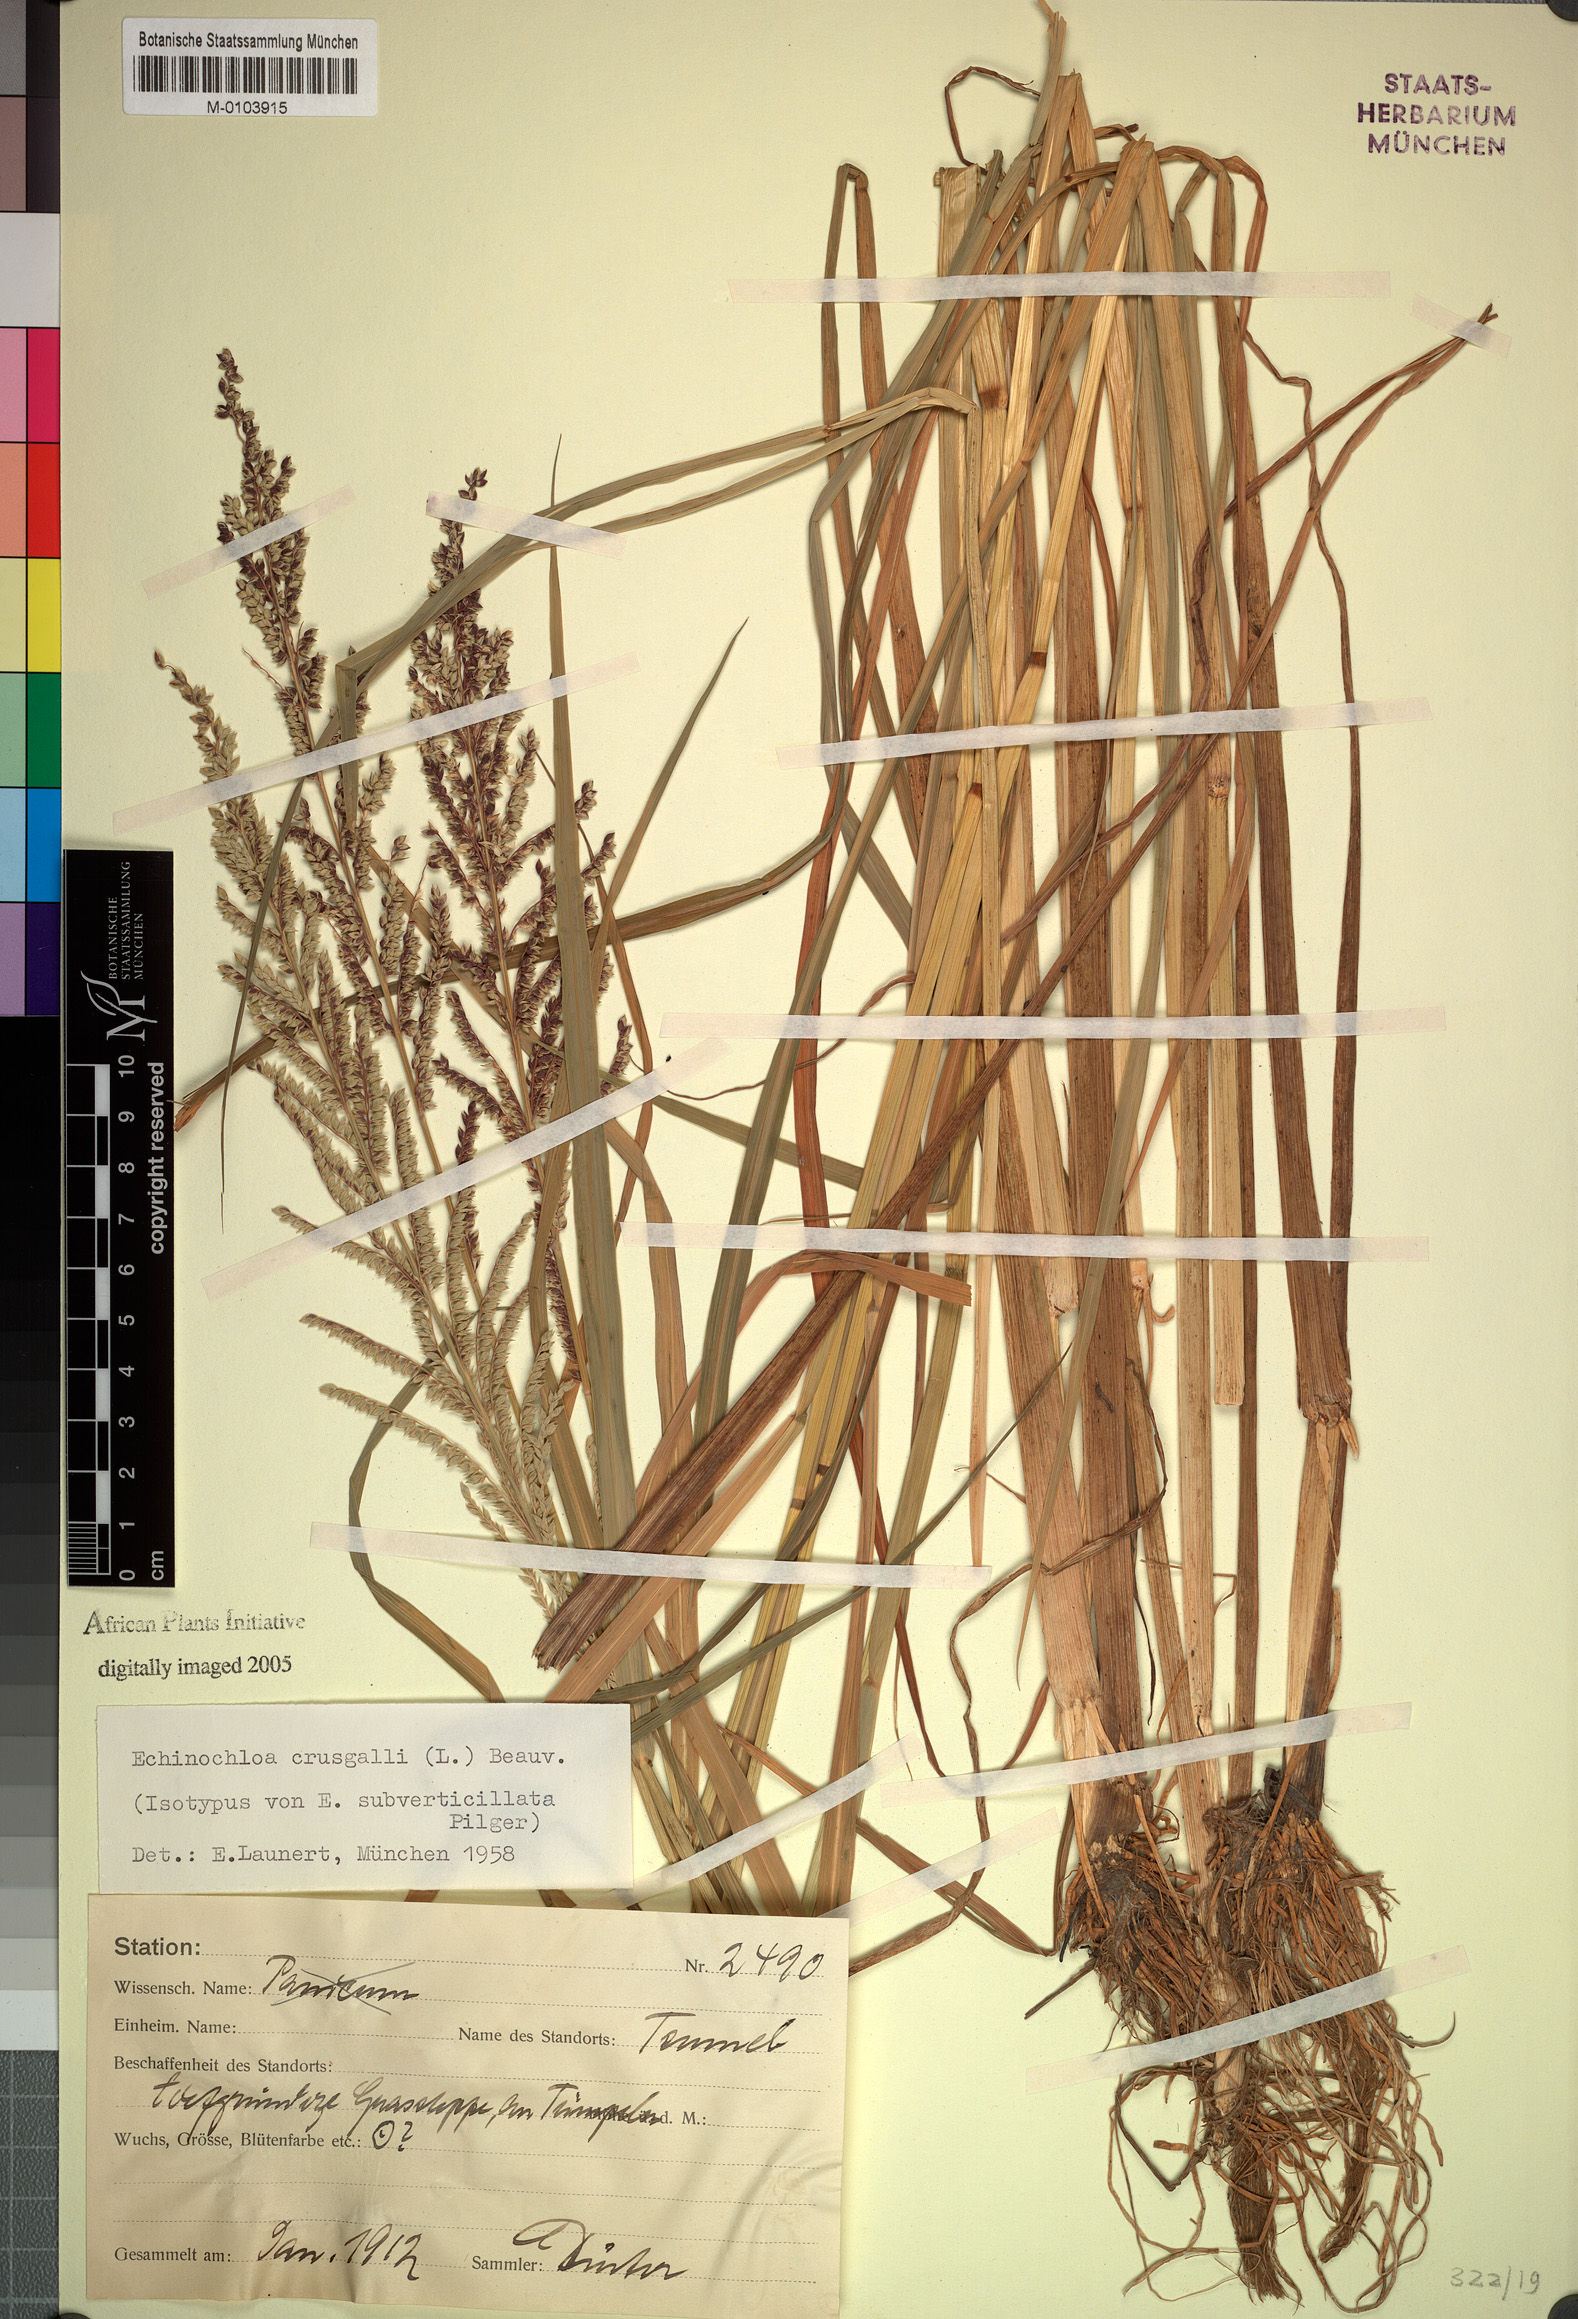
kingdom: Plantae
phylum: Tracheophyta
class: Liliopsida
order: Poales
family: Poaceae
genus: Echinochloa
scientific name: Echinochloa crus-galli
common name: Cockspur
